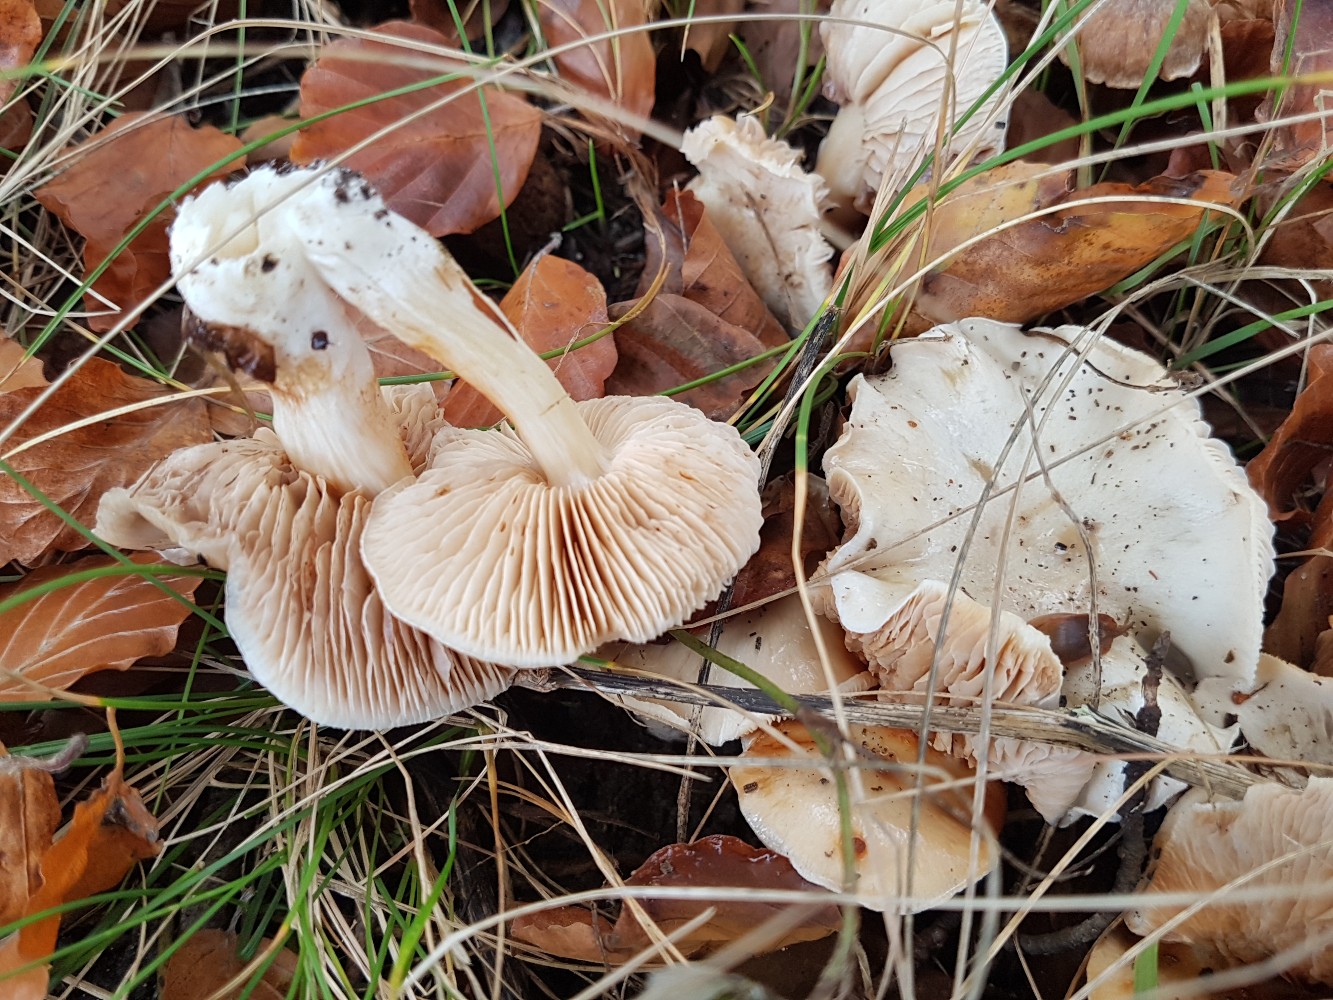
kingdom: Fungi
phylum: Basidiomycota
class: Agaricomycetes
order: Agaricales
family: Cortinariaceae
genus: Thaxterogaster
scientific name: Thaxterogaster barbatus
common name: elfenbens-slørhat
